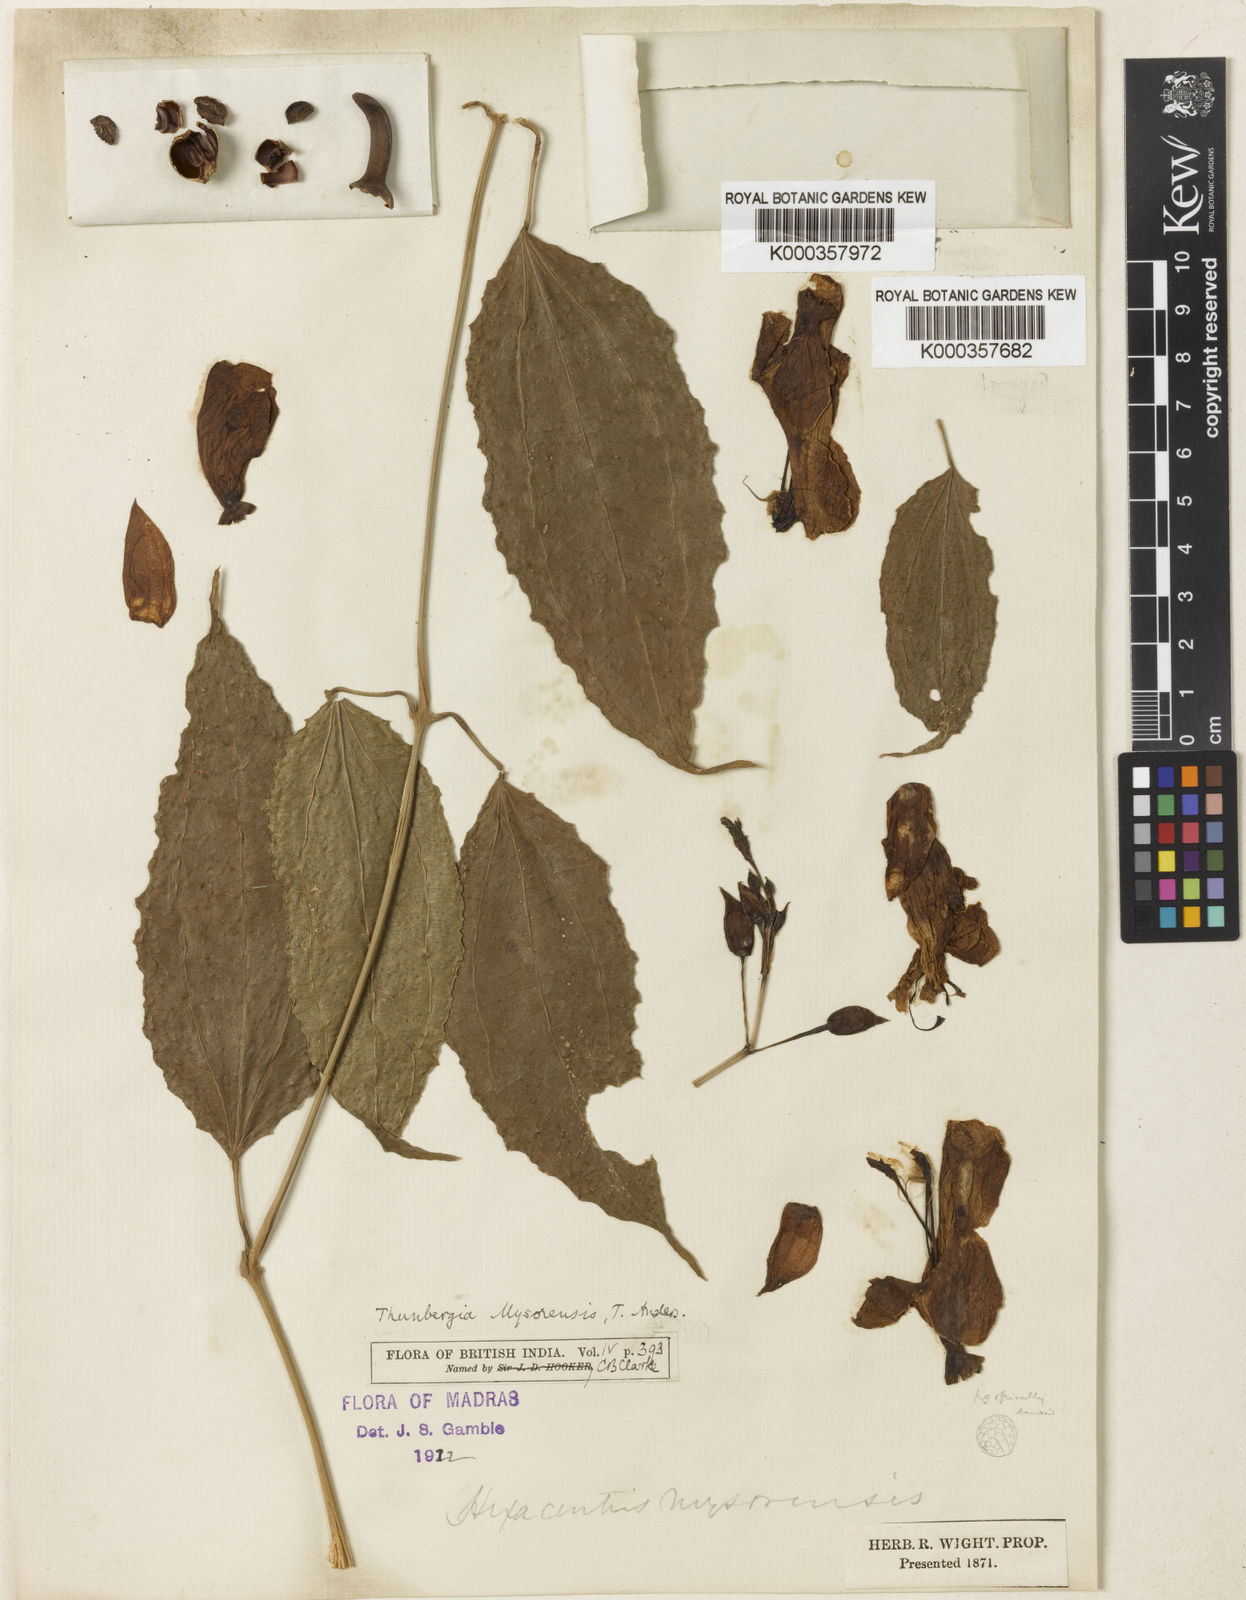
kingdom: Plantae
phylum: Tracheophyta
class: Magnoliopsida
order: Lamiales
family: Acanthaceae
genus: Thunbergia
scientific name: Thunbergia
